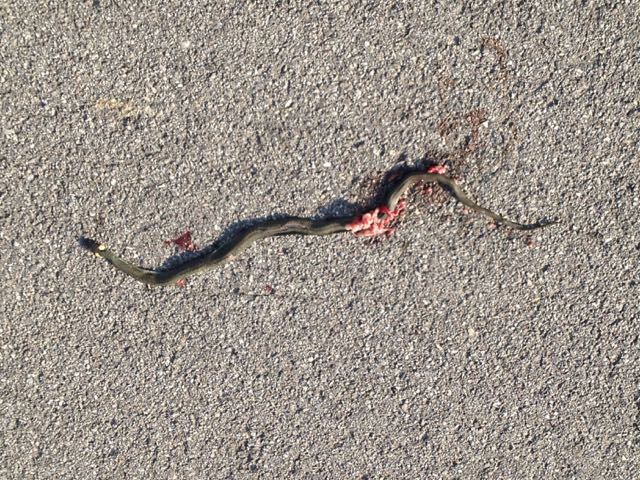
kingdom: Animalia
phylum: Chordata
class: Squamata
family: Colubridae
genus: Natrix
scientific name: Natrix natrix
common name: Grass snake
